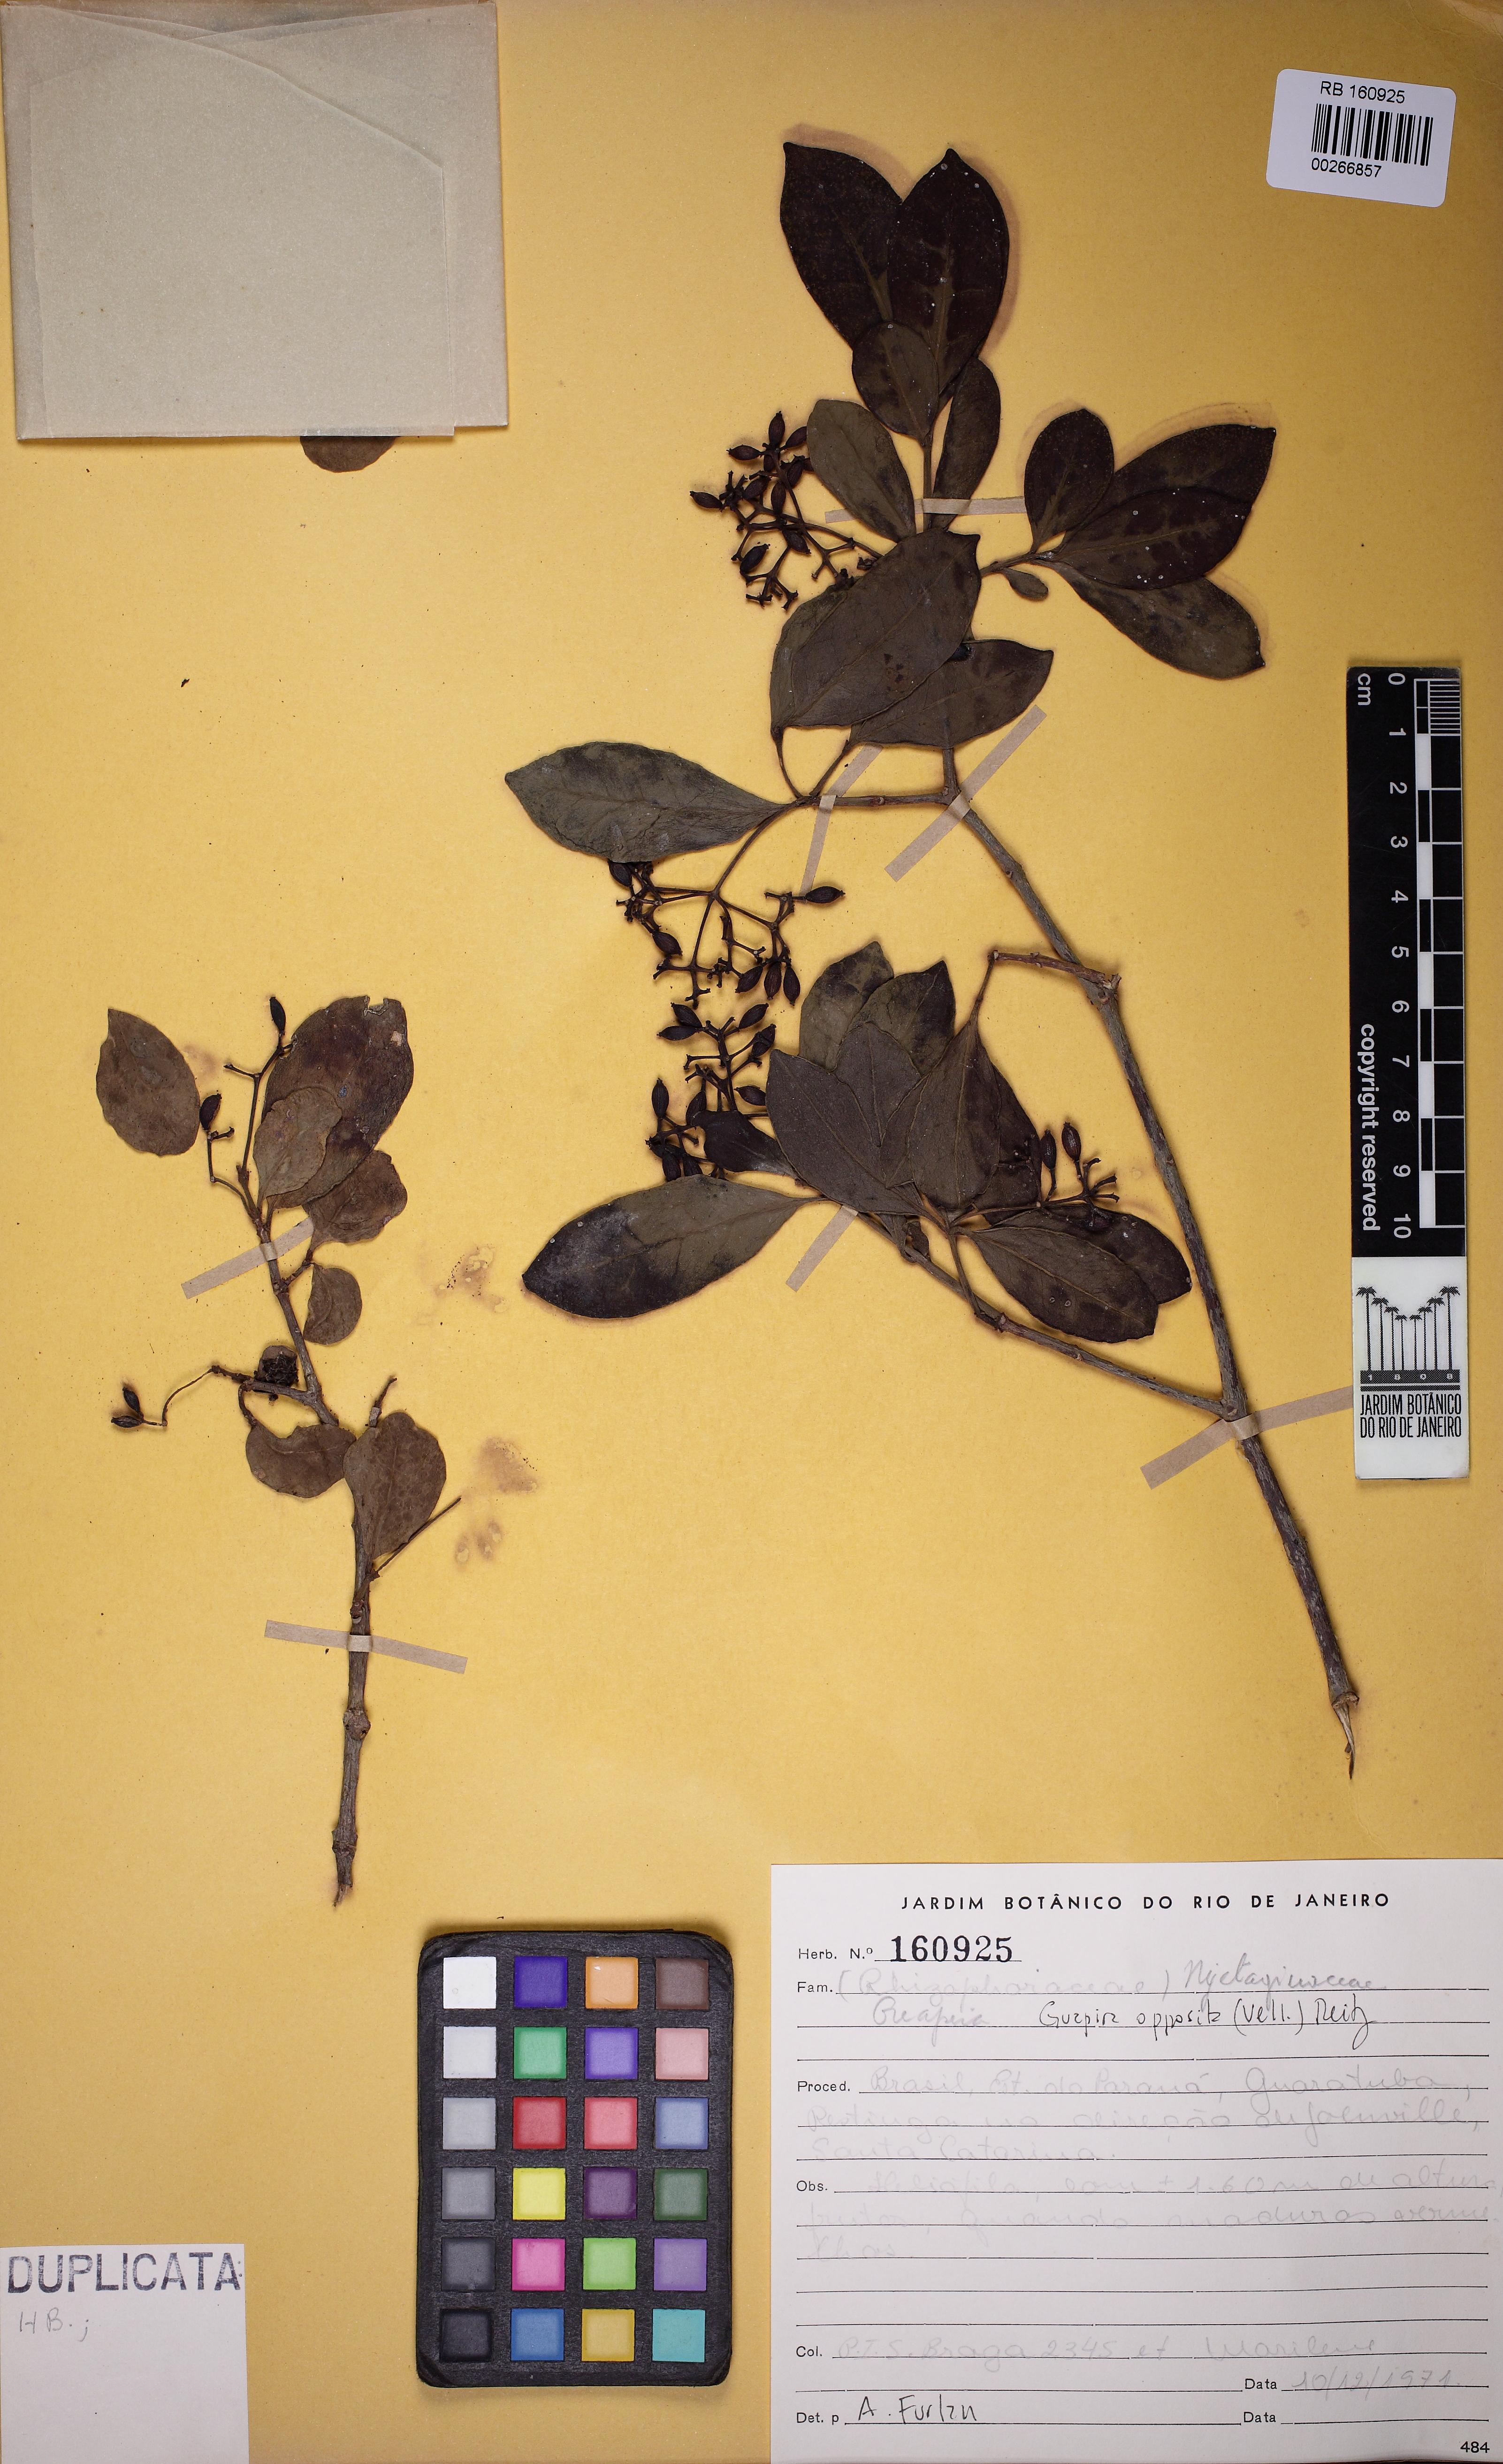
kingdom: Plantae
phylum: Tracheophyta
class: Magnoliopsida
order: Caryophyllales
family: Nyctaginaceae
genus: Guapira
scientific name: Guapira opposita
